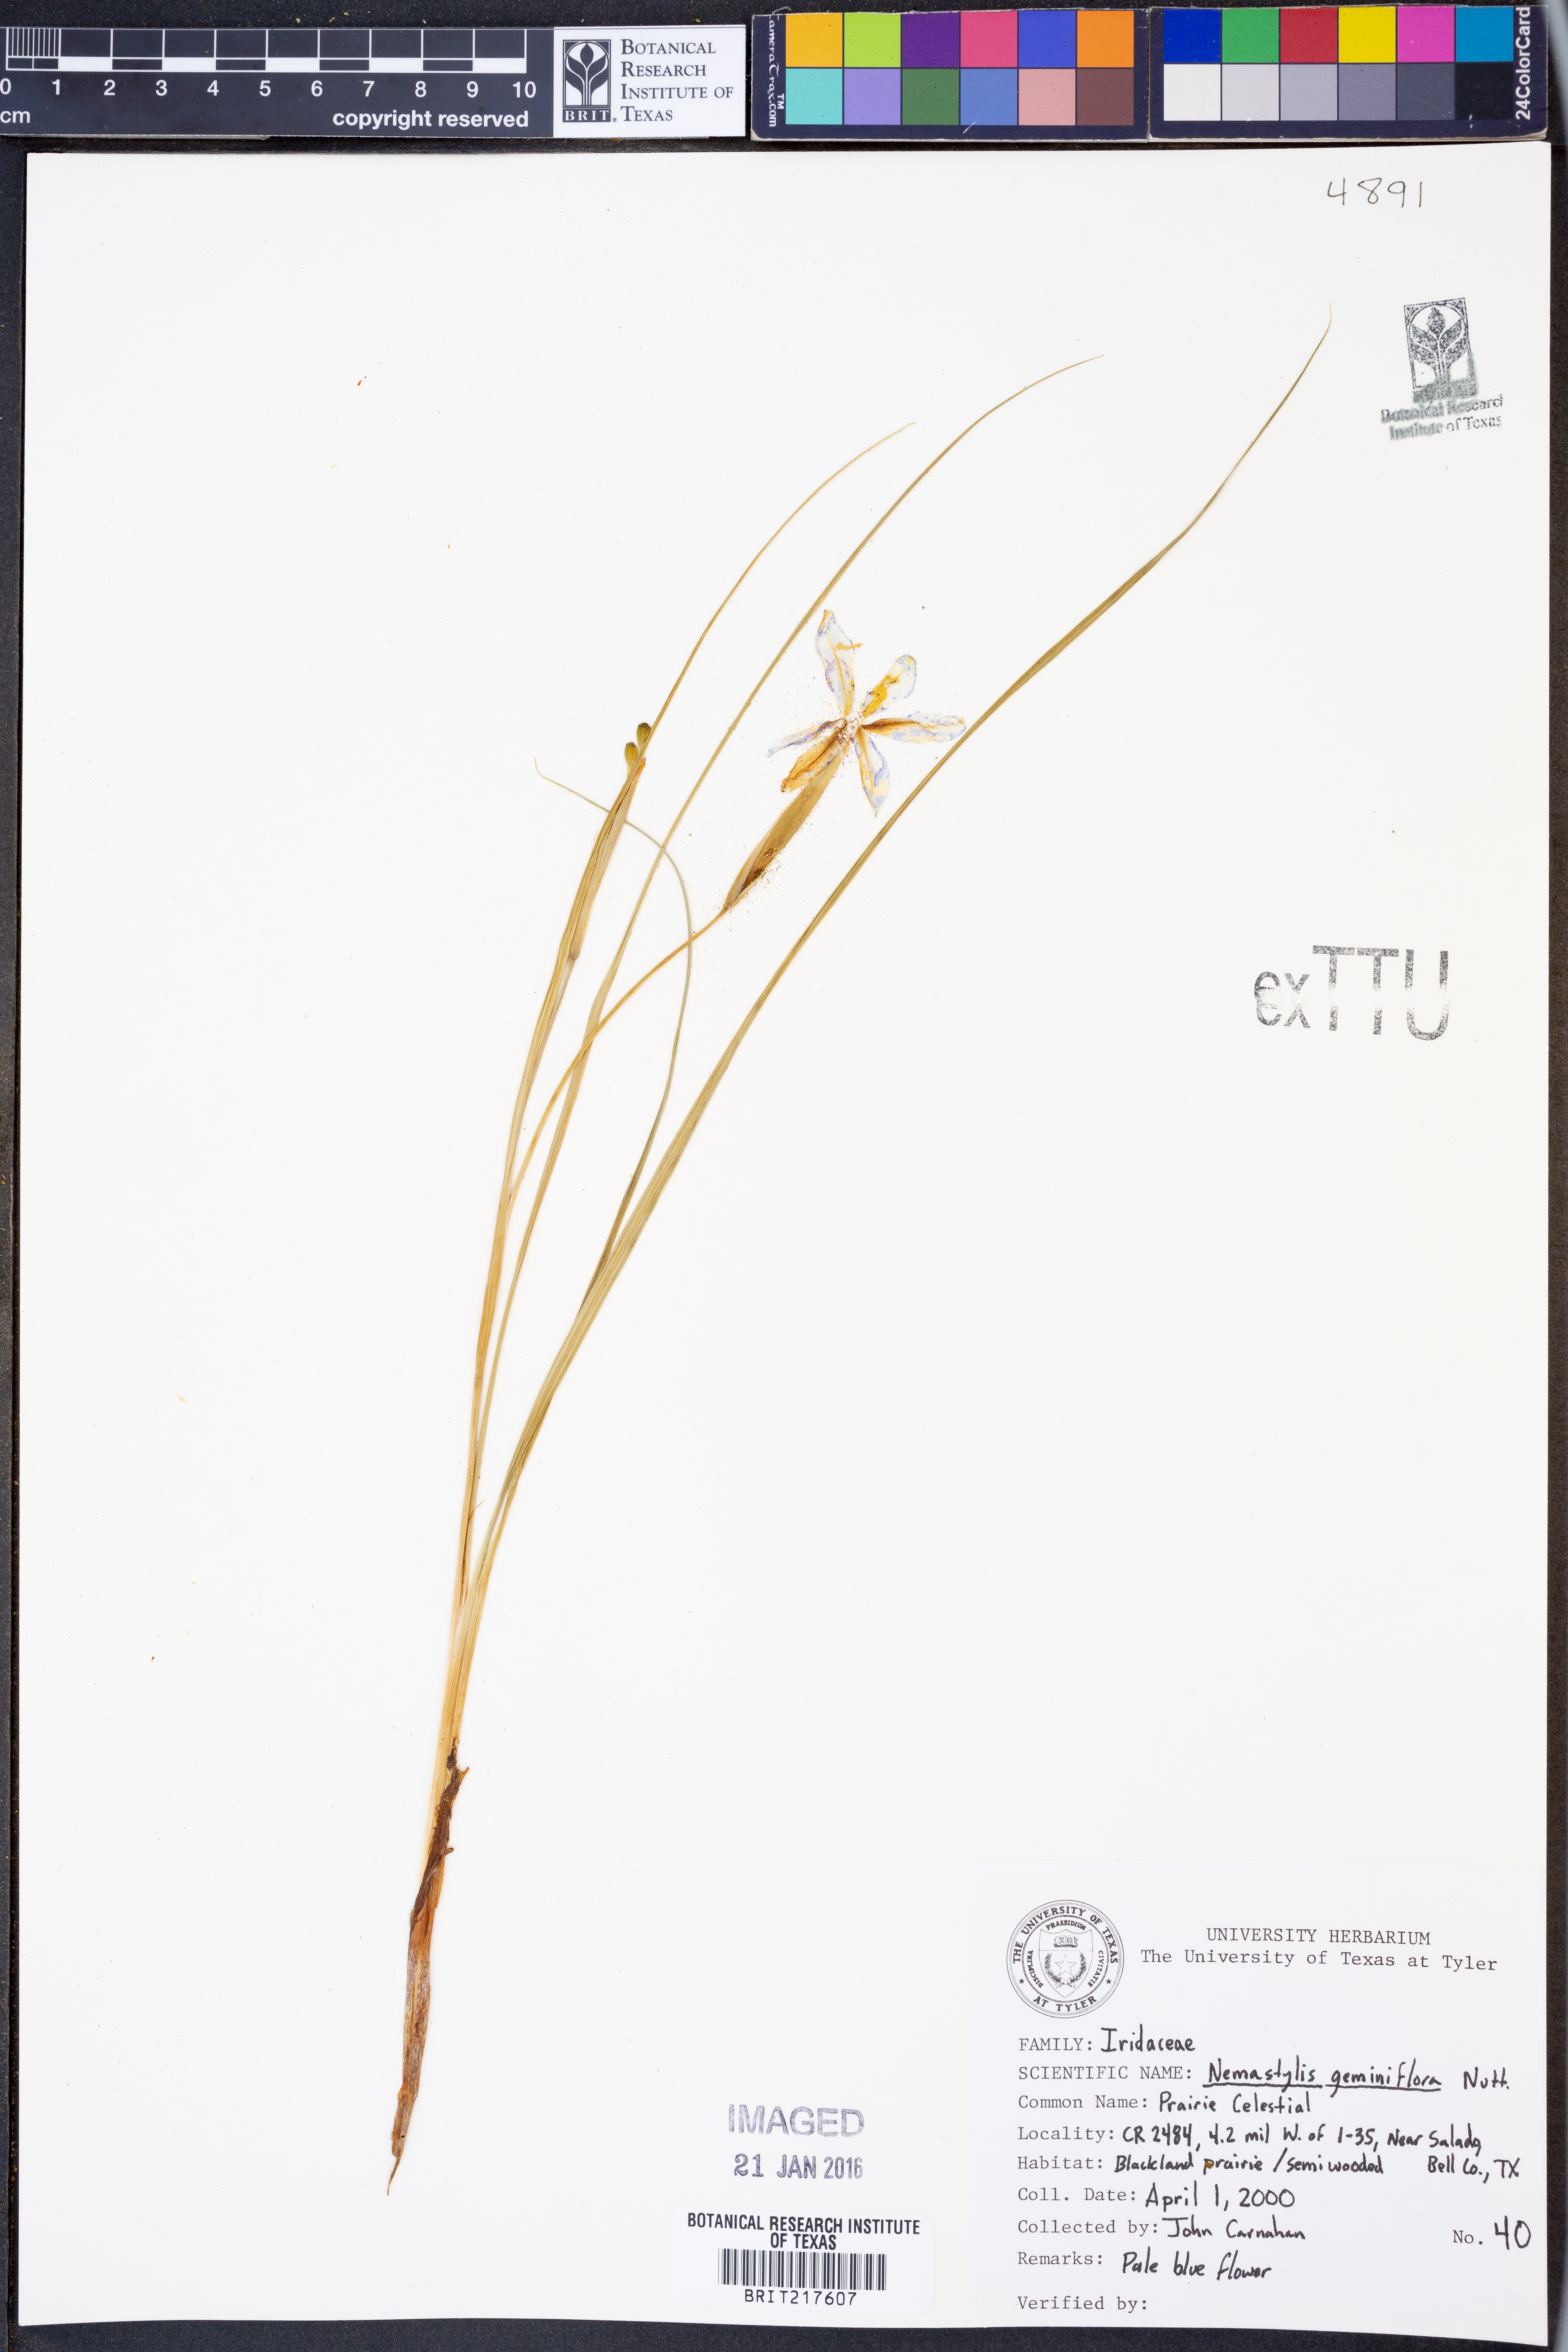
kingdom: Plantae
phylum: Tracheophyta
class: Liliopsida
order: Asparagales
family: Iridaceae
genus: Nemastylis
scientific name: Nemastylis geminiflora
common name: Prairie celestial
